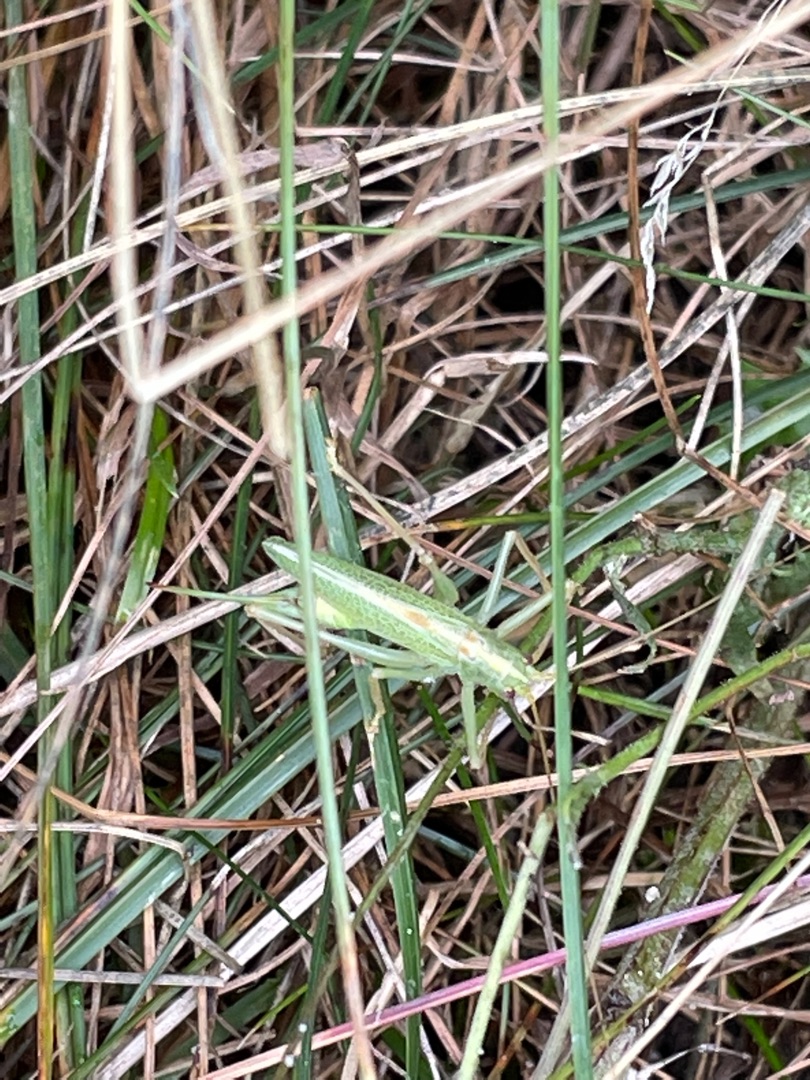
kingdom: Animalia
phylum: Arthropoda
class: Insecta
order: Orthoptera
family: Tettigoniidae
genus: Meconema
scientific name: Meconema thalassinum
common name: Egegræshoppe
